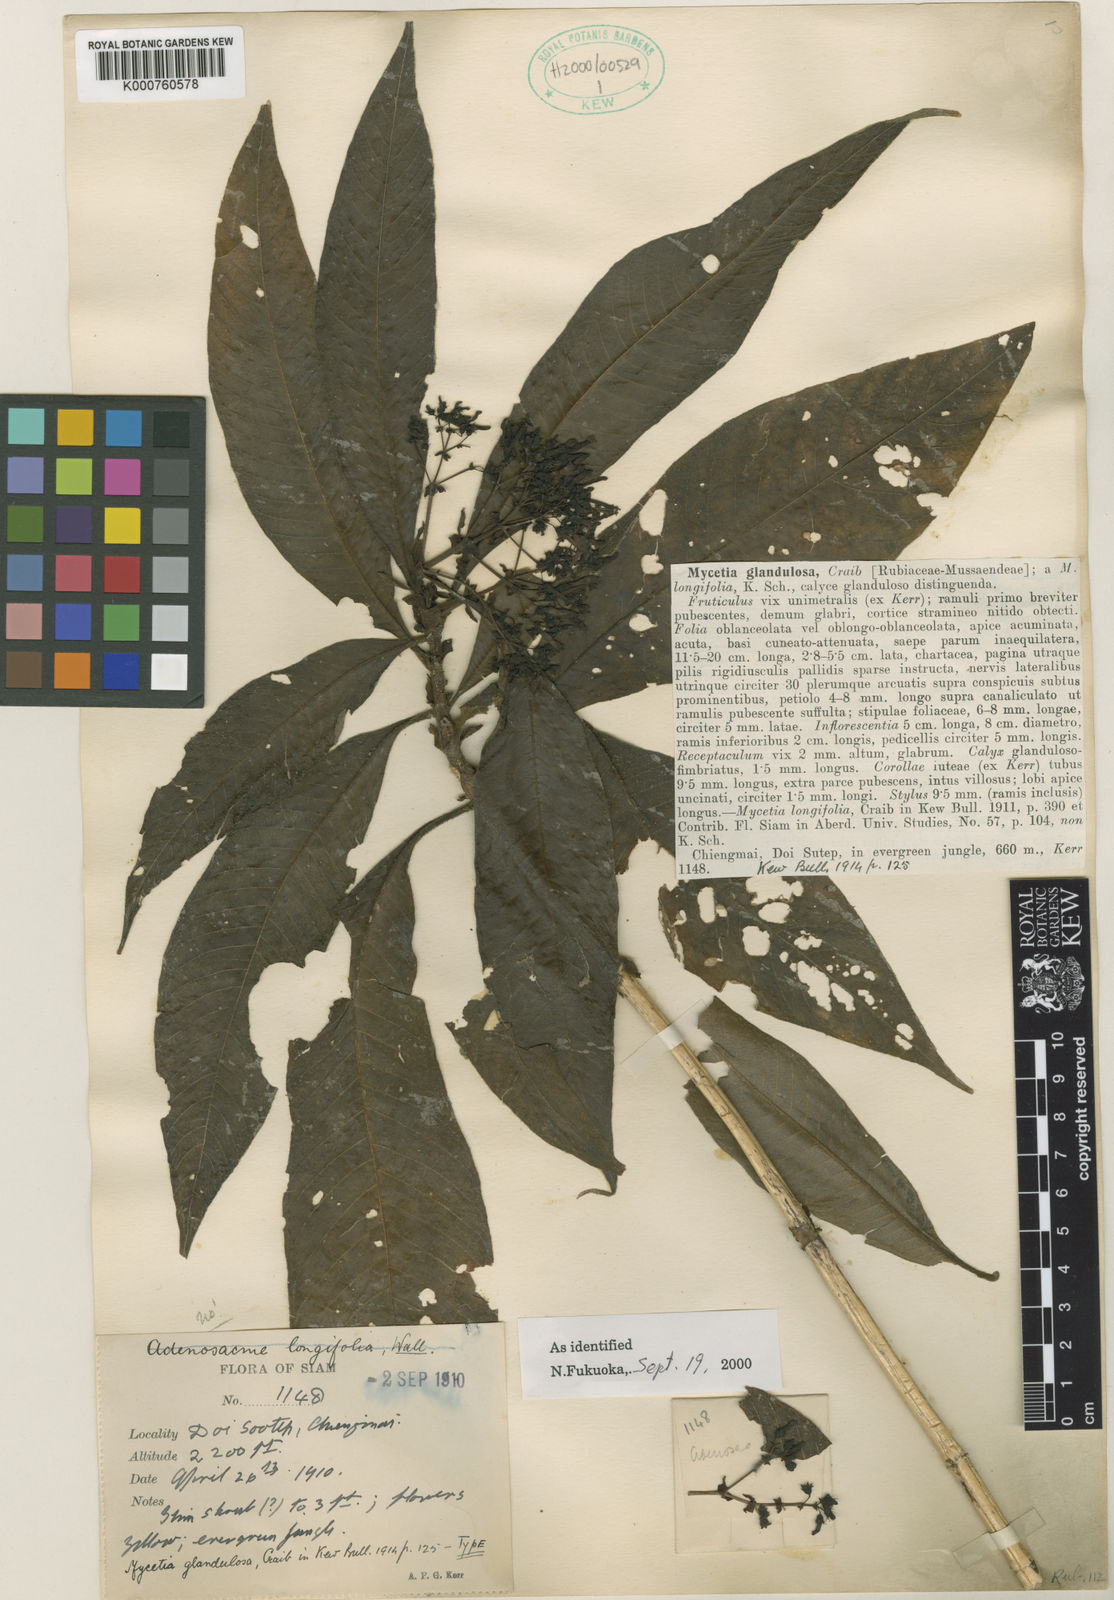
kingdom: Plantae
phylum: Tracheophyta
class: Magnoliopsida
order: Gentianales
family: Rubiaceae
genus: Mycetia
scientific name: Mycetia glandulosa
